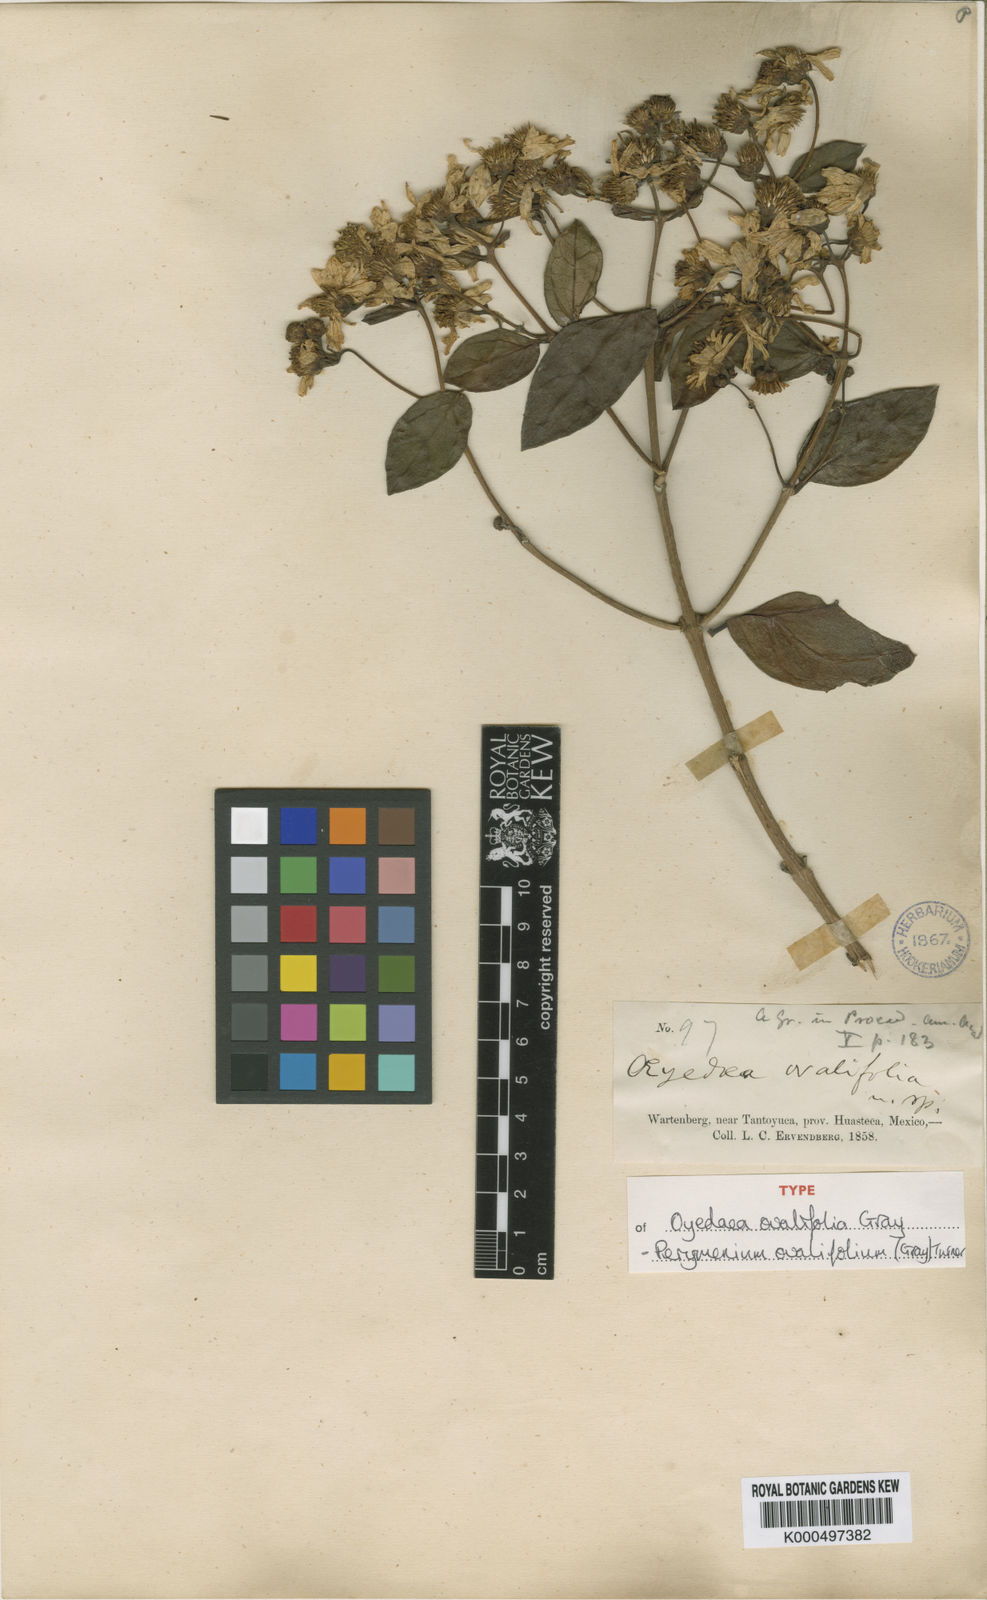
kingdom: Plantae
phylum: Tracheophyta
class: Magnoliopsida
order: Asterales
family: Asteraceae
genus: Perymeniopsis
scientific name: Perymeniopsis ovalifolia
